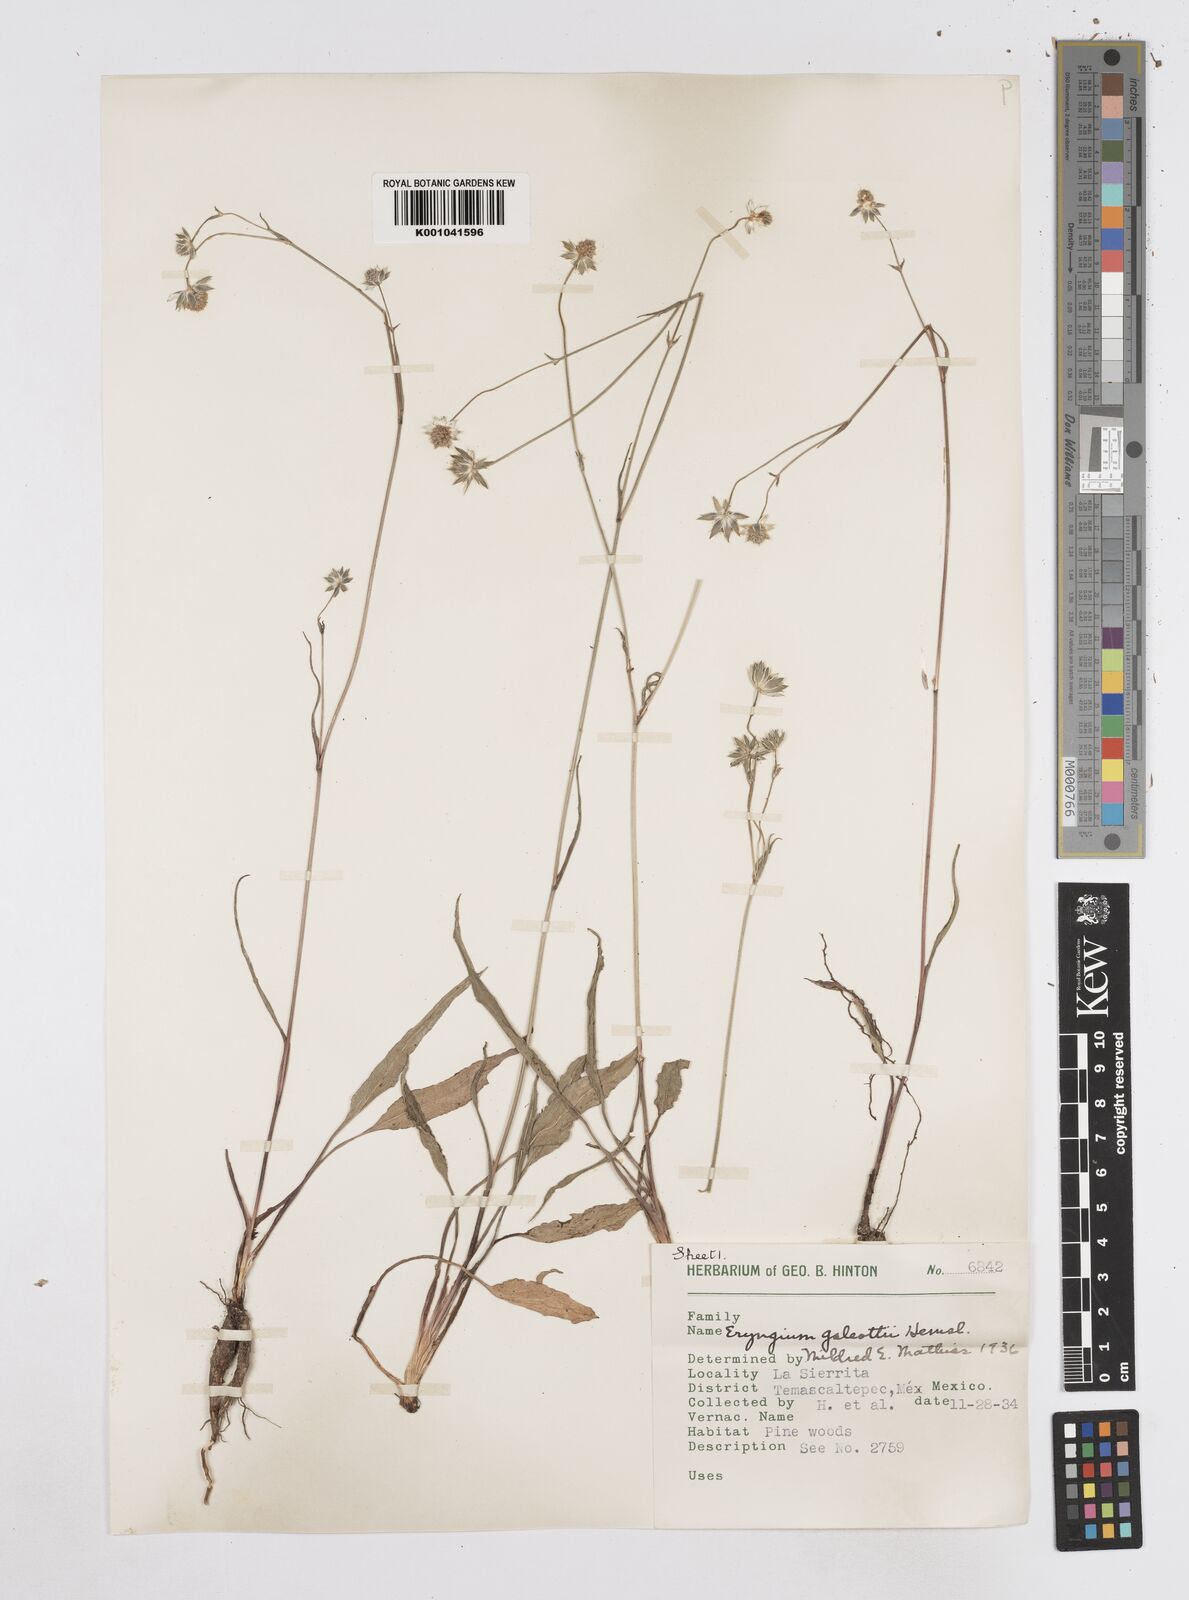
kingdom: Plantae
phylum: Tracheophyta
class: Magnoliopsida
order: Apiales
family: Apiaceae
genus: Eryngium
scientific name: Eryngium galeottii
